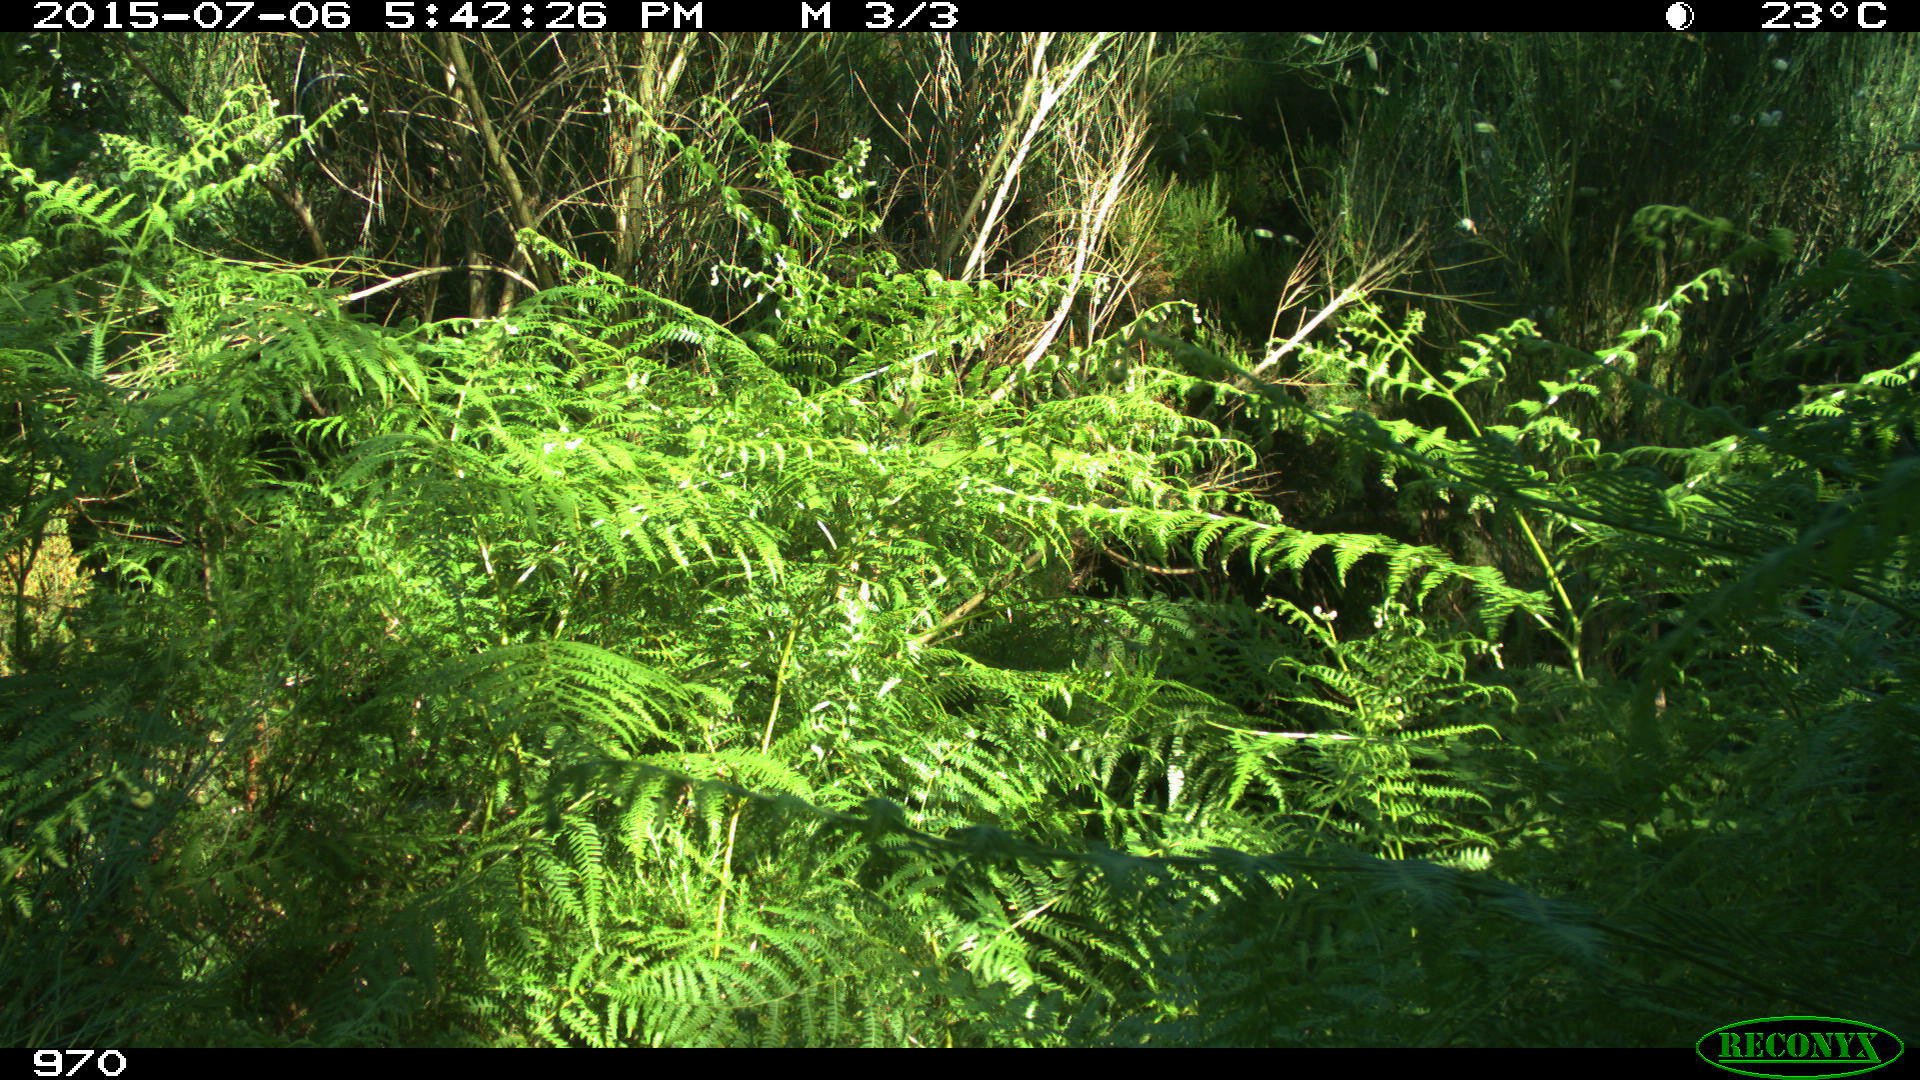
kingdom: Animalia
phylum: Chordata
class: Mammalia
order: Artiodactyla
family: Bovidae
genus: Bos
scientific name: Bos taurus
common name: Domesticated cattle
